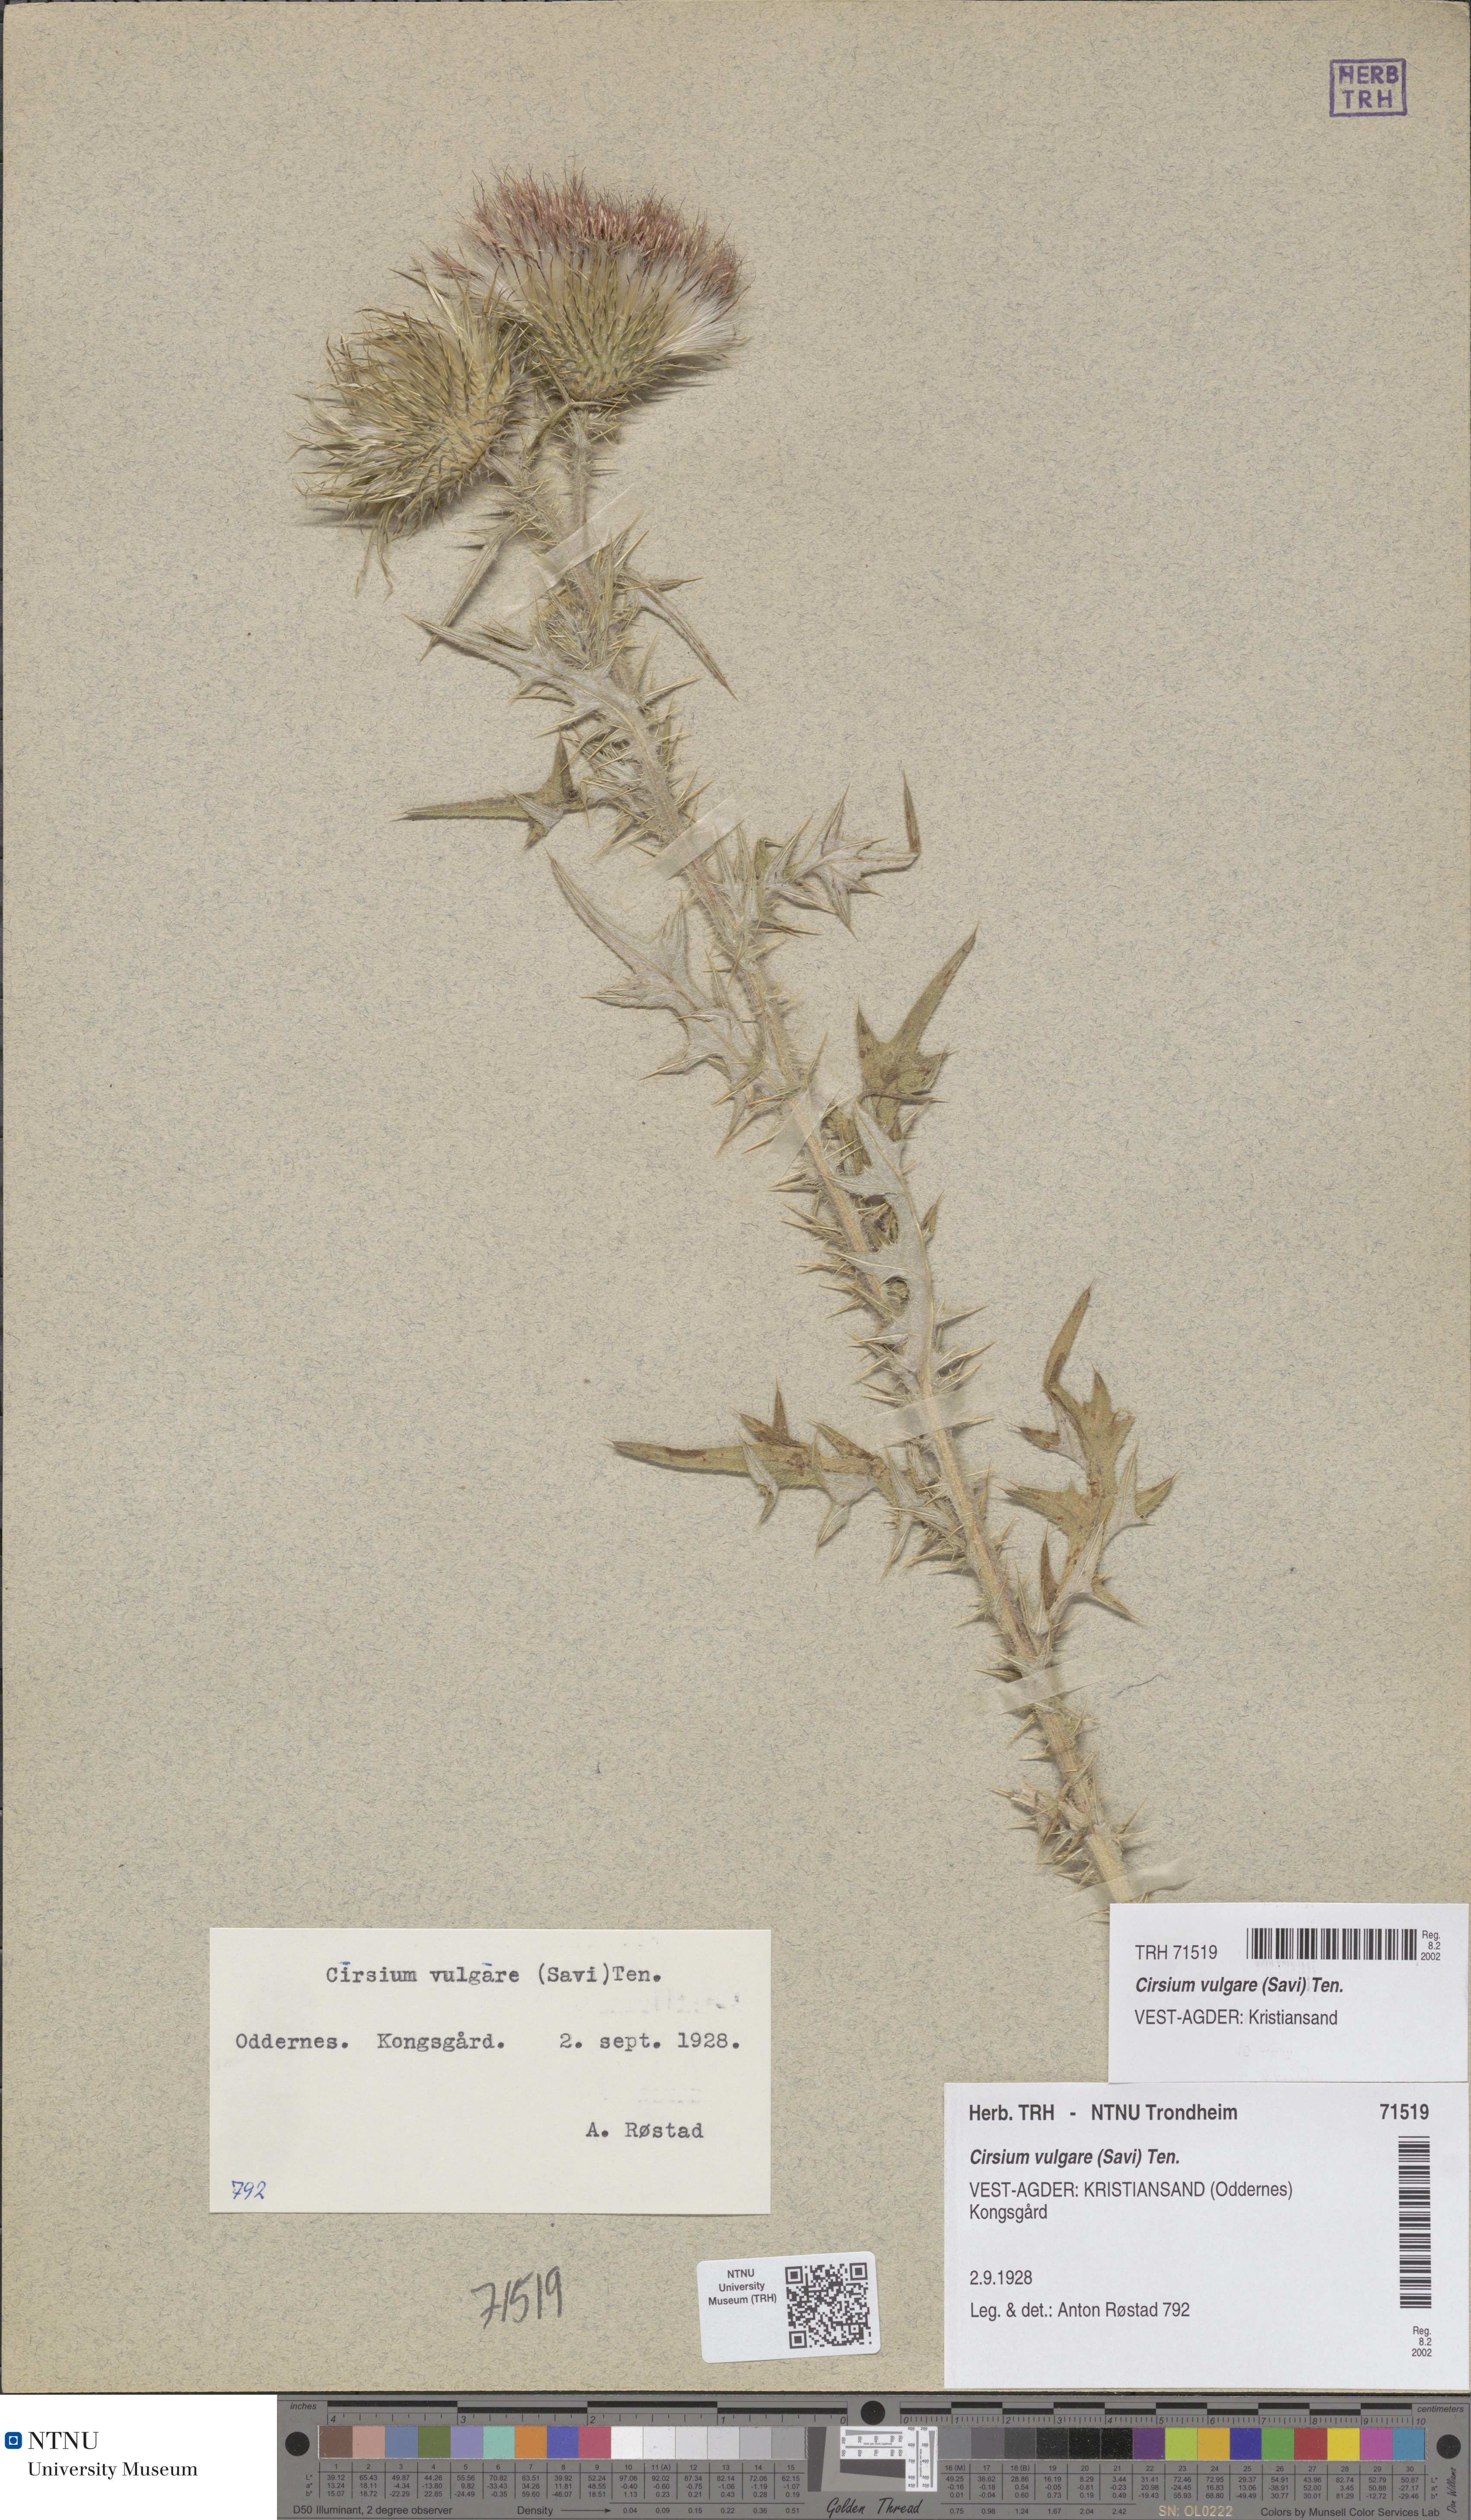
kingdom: Plantae
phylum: Tracheophyta
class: Magnoliopsida
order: Asterales
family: Asteraceae
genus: Cirsium
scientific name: Cirsium vulgare
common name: Bull thistle
